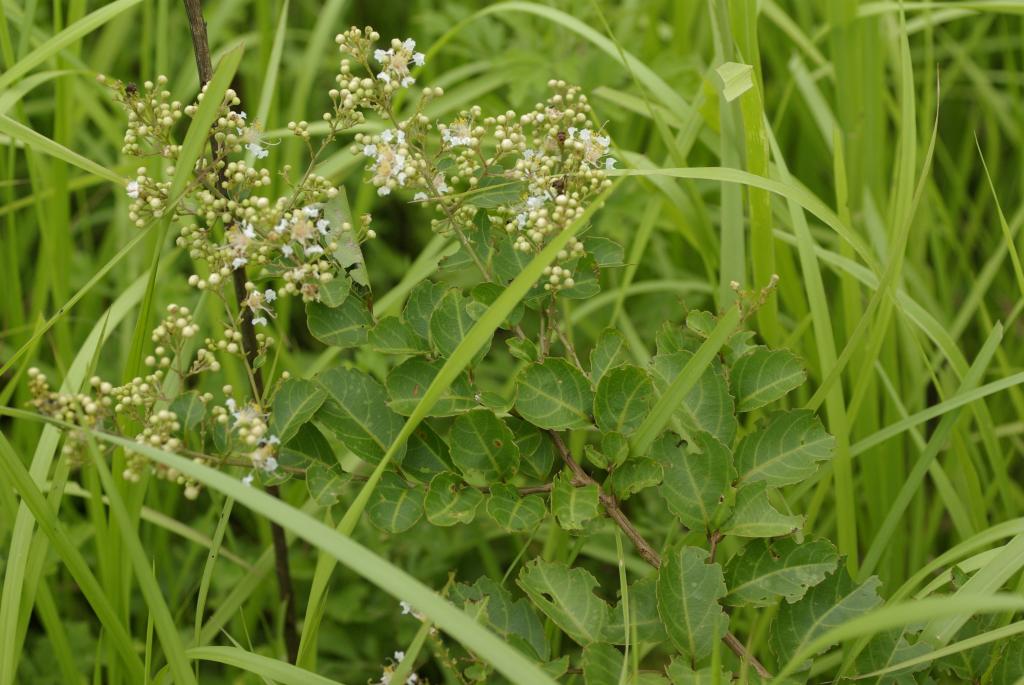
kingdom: Plantae
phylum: Tracheophyta
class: Magnoliopsida
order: Myrtales
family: Lythraceae
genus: Lagerstroemia
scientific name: Lagerstroemia subcostata
